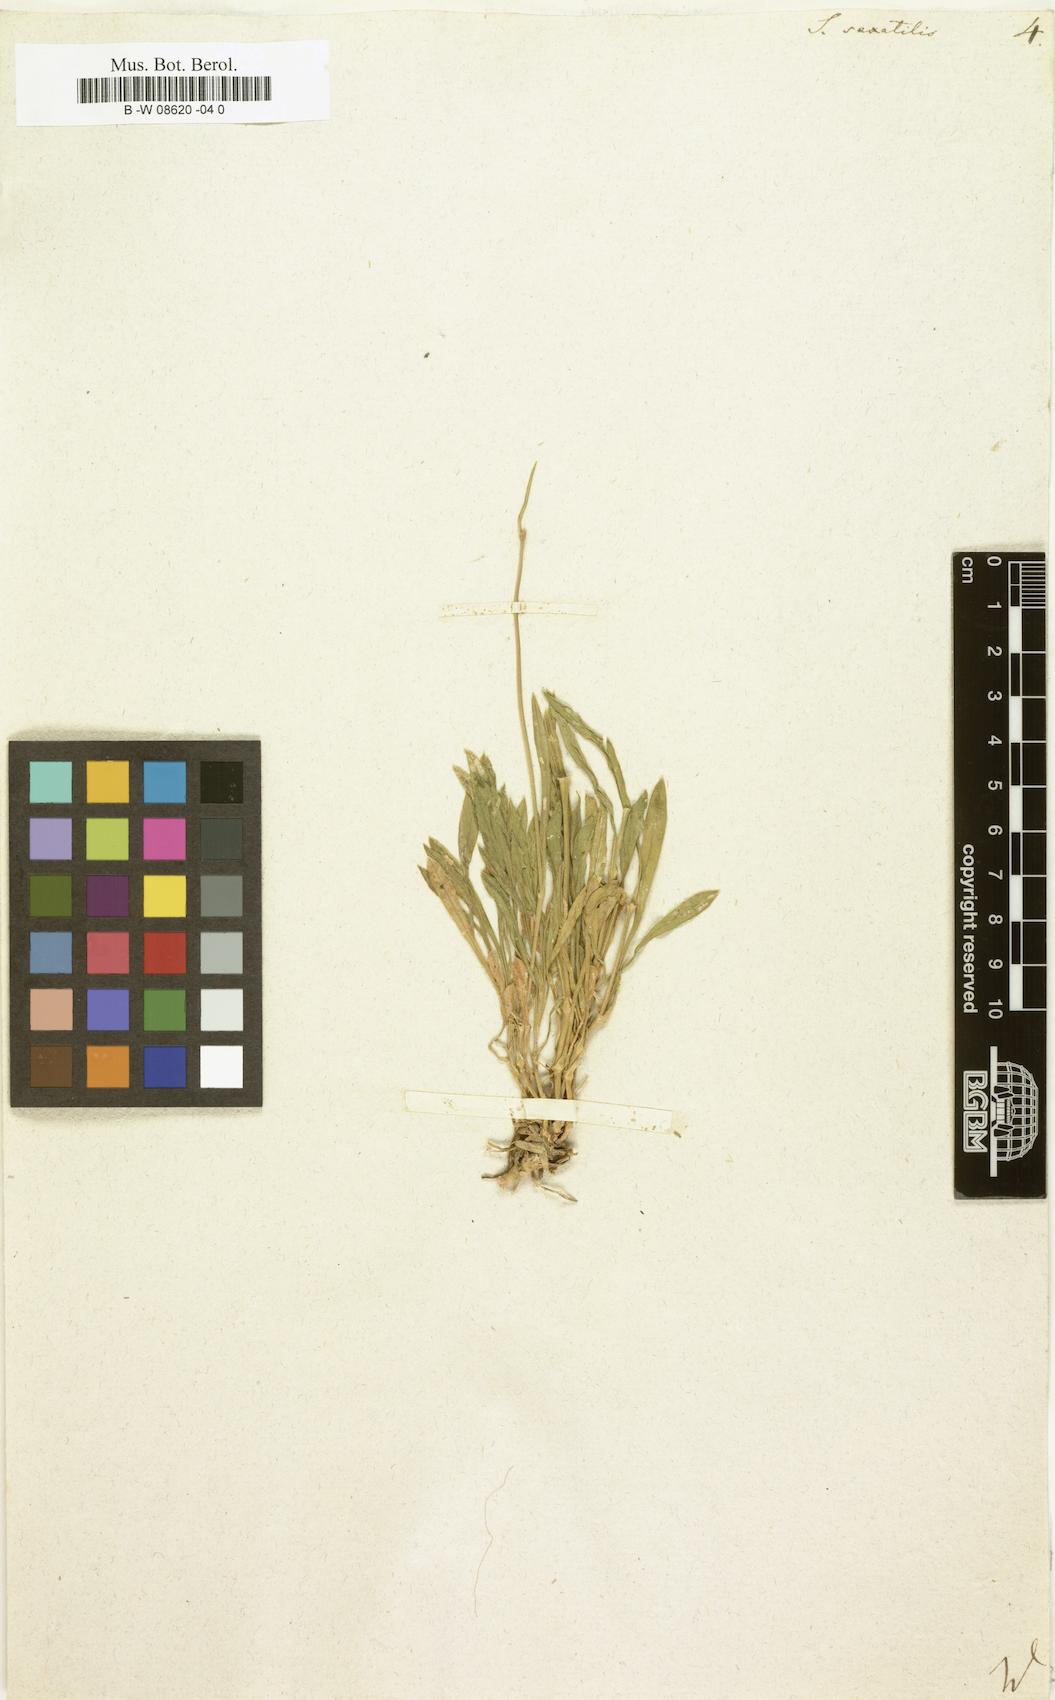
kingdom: Plantae
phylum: Tracheophyta
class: Magnoliopsida
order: Caryophyllales
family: Caryophyllaceae
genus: Silene
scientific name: Silene saxatilis
